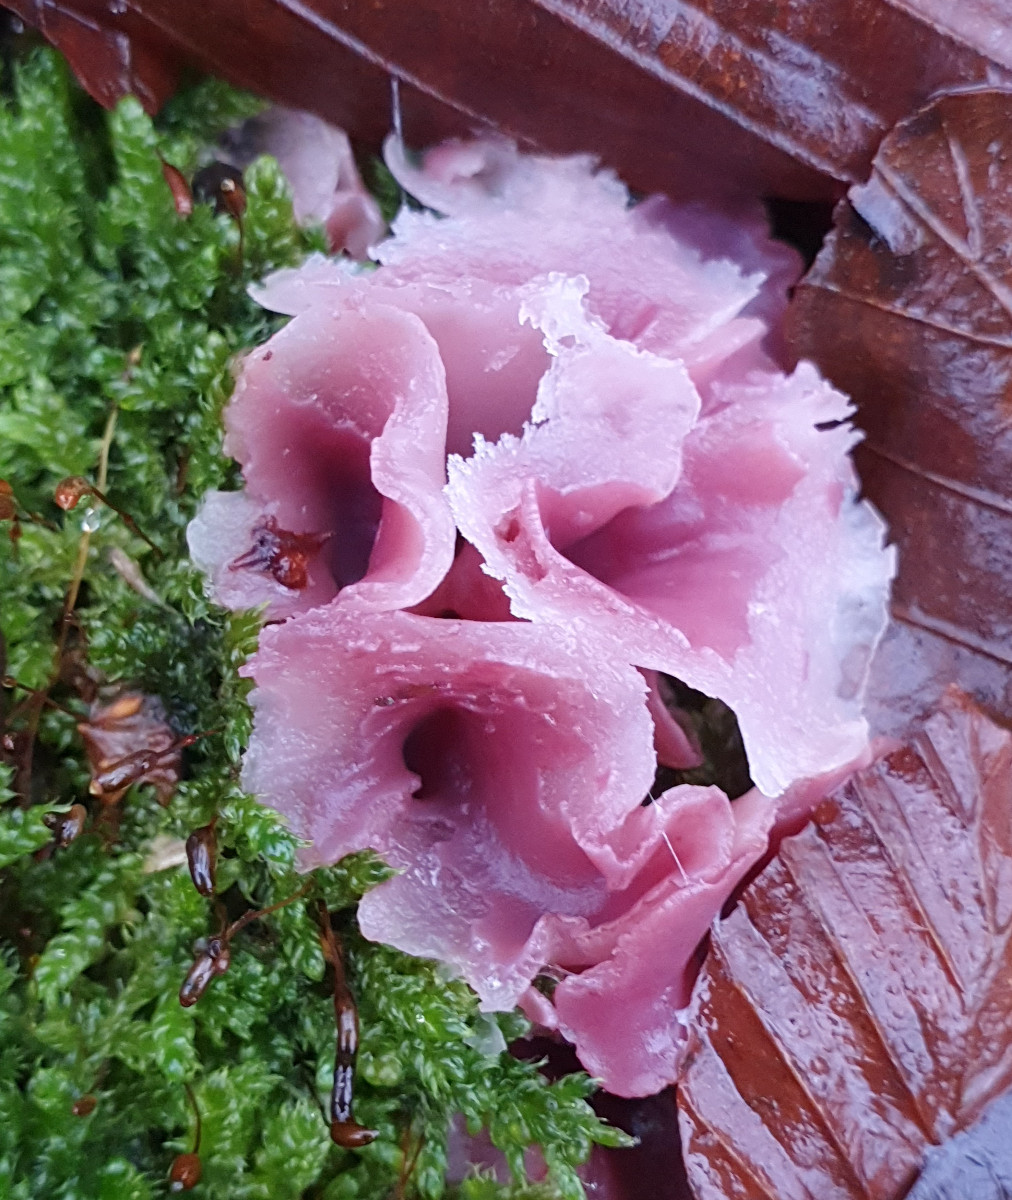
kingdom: Fungi
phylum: Ascomycota
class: Leotiomycetes
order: Helotiales
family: Gelatinodiscaceae
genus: Ascocoryne
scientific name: Ascocoryne cylichnium
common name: stor sejskive
